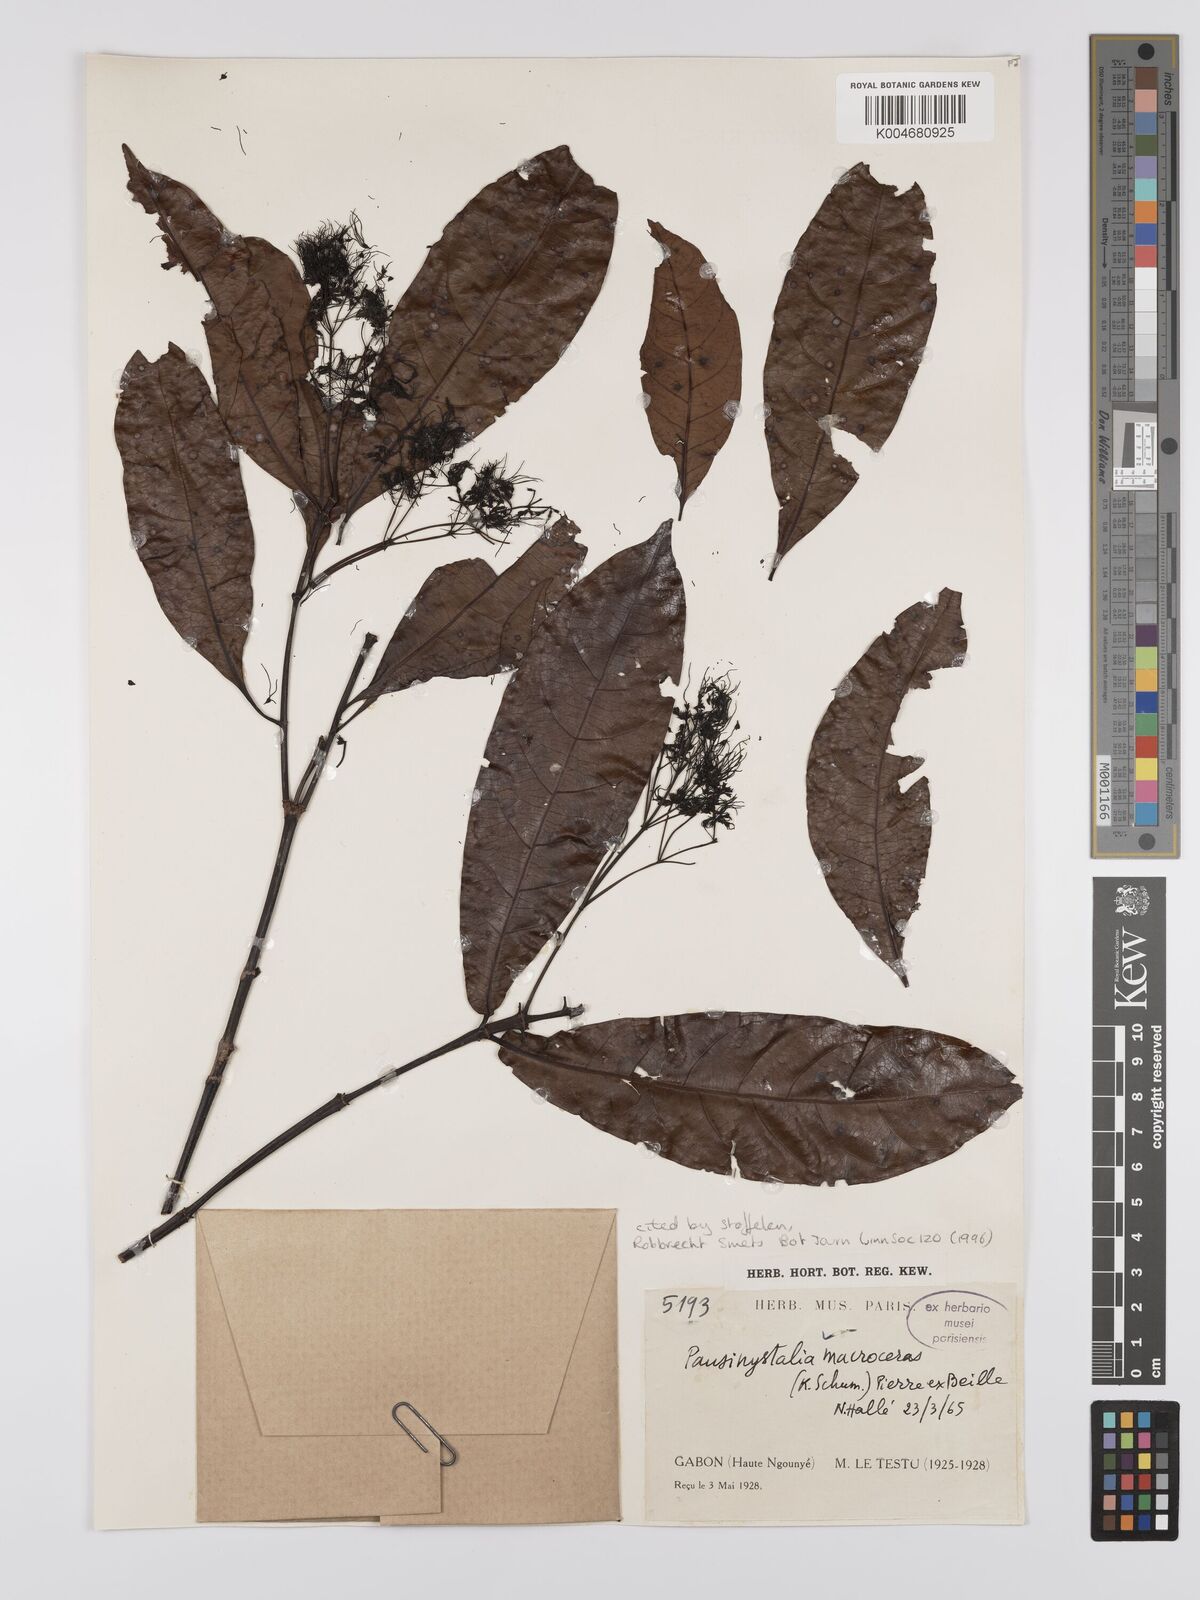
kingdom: Plantae
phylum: Tracheophyta
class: Magnoliopsida
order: Gentianales
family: Rubiaceae
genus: Corynanthe
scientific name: Corynanthe macroceras
